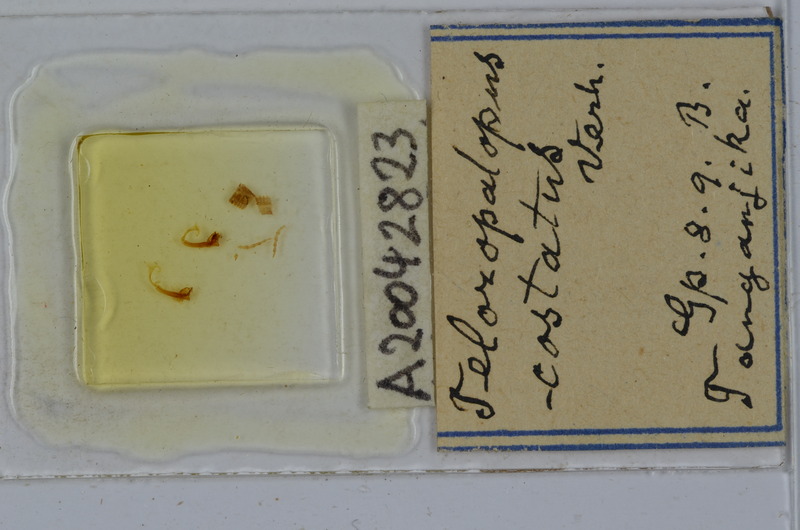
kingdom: Animalia
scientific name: Animalia
